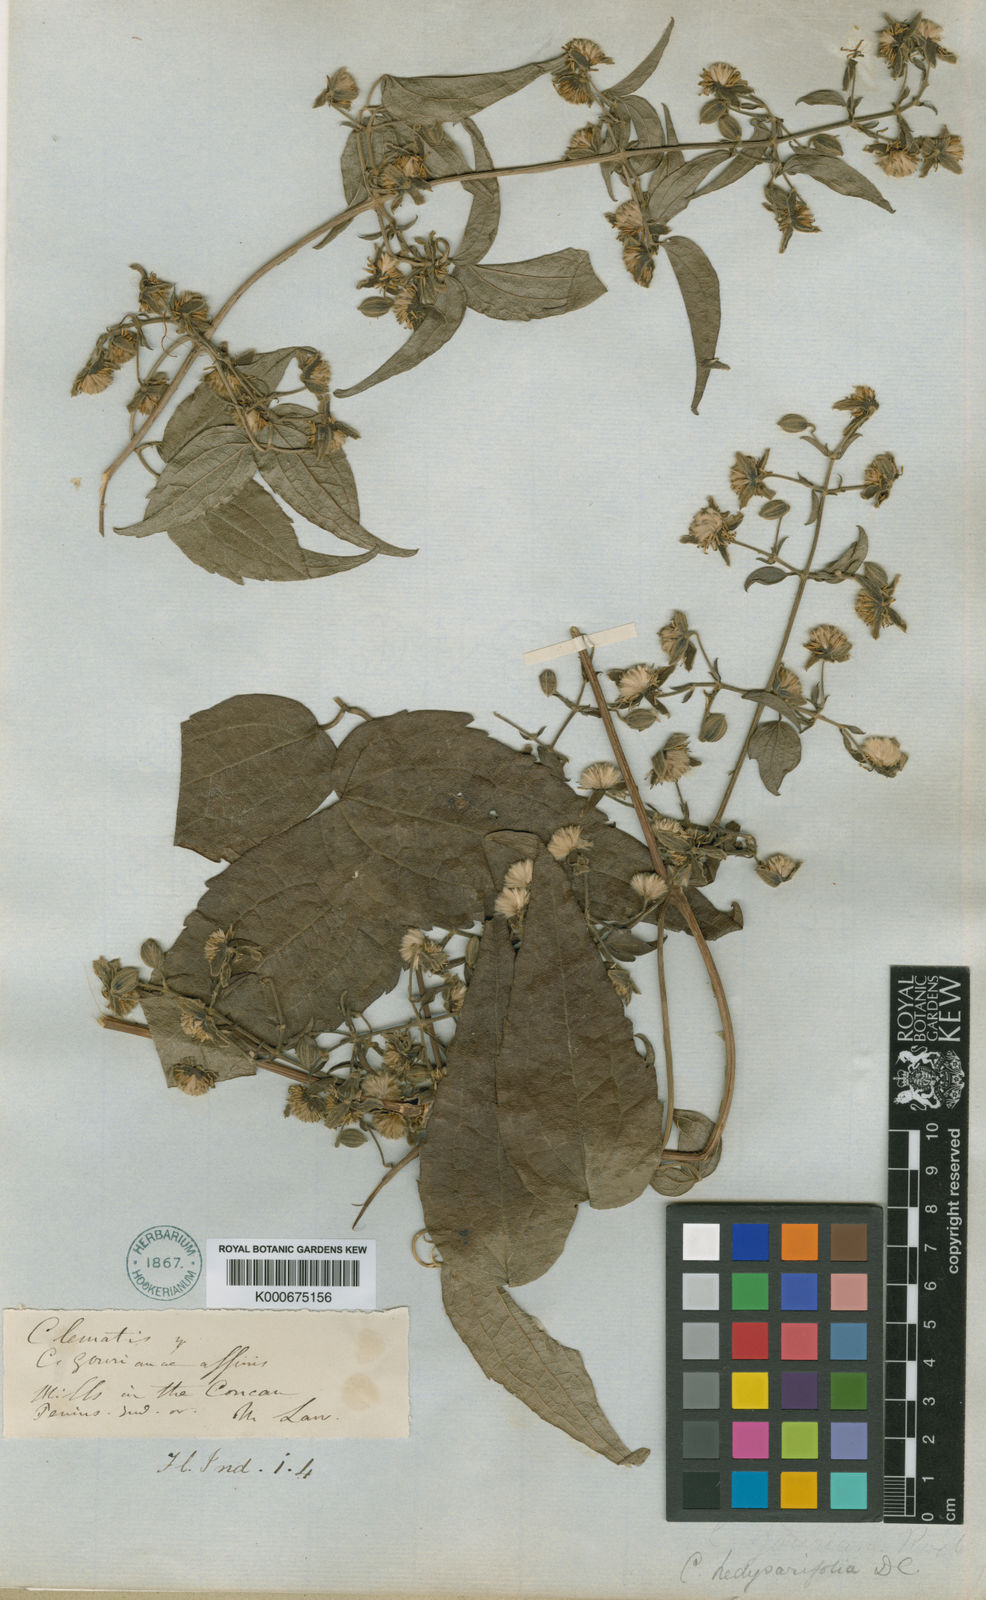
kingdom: Plantae
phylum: Tracheophyta
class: Magnoliopsida
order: Ranunculales
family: Ranunculaceae
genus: Clematis
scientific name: Clematis hedysarifolia
